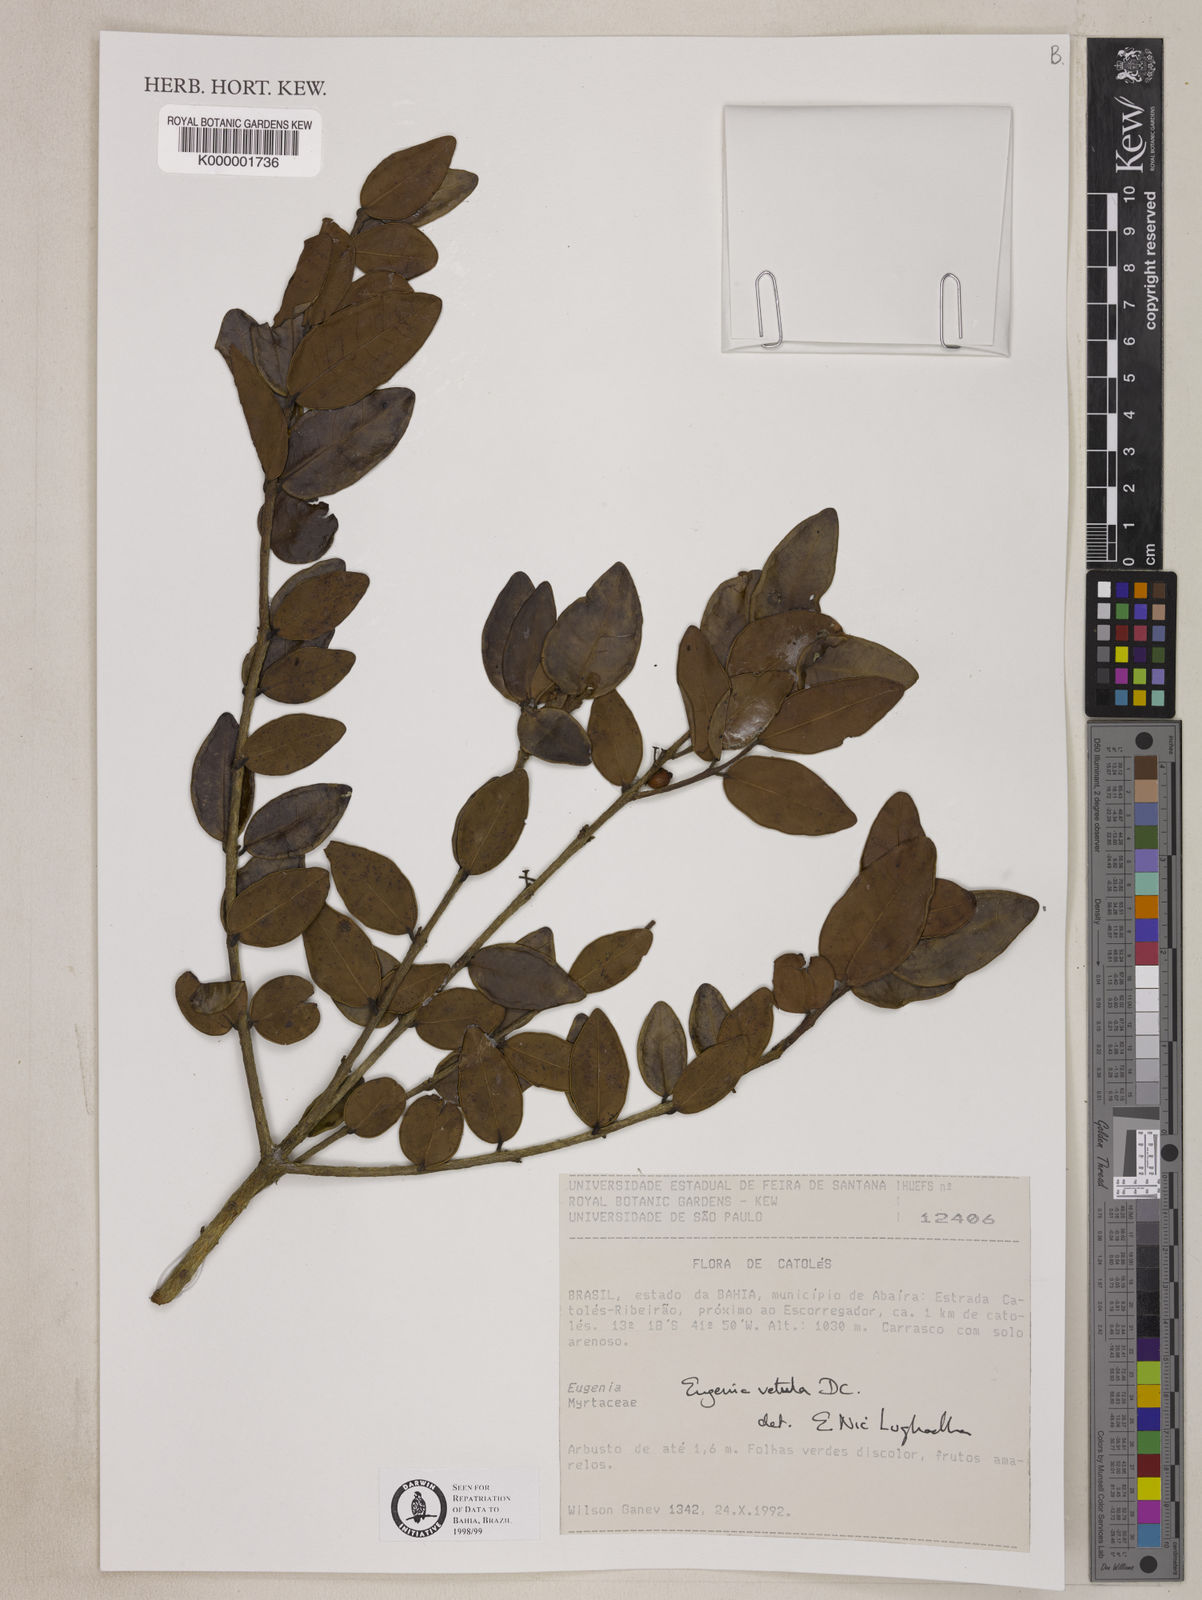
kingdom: Plantae
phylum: Tracheophyta
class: Magnoliopsida
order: Myrtales
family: Myrtaceae
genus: Eugenia
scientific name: Eugenia vetula
